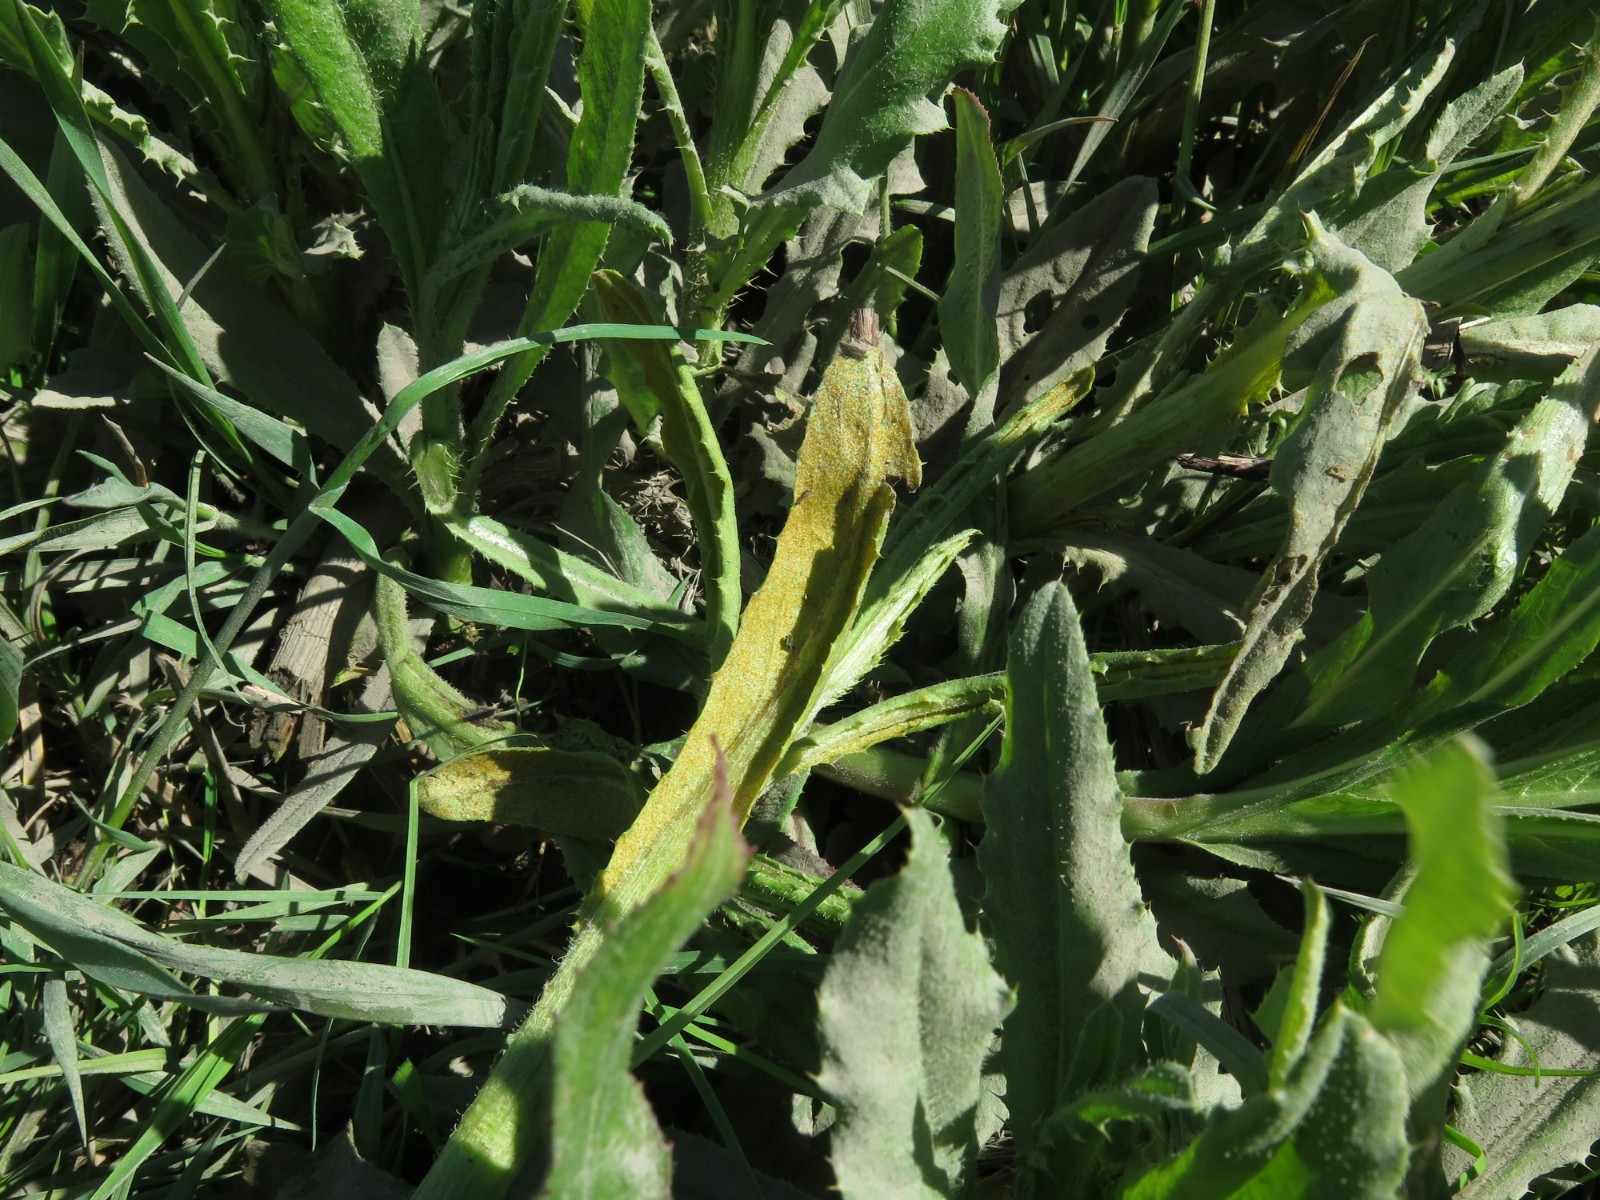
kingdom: Fungi
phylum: Basidiomycota
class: Pucciniomycetes
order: Pucciniales
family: Pucciniaceae
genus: Puccinia
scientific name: Puccinia suaveolens
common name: tidsel-tvecellerust
